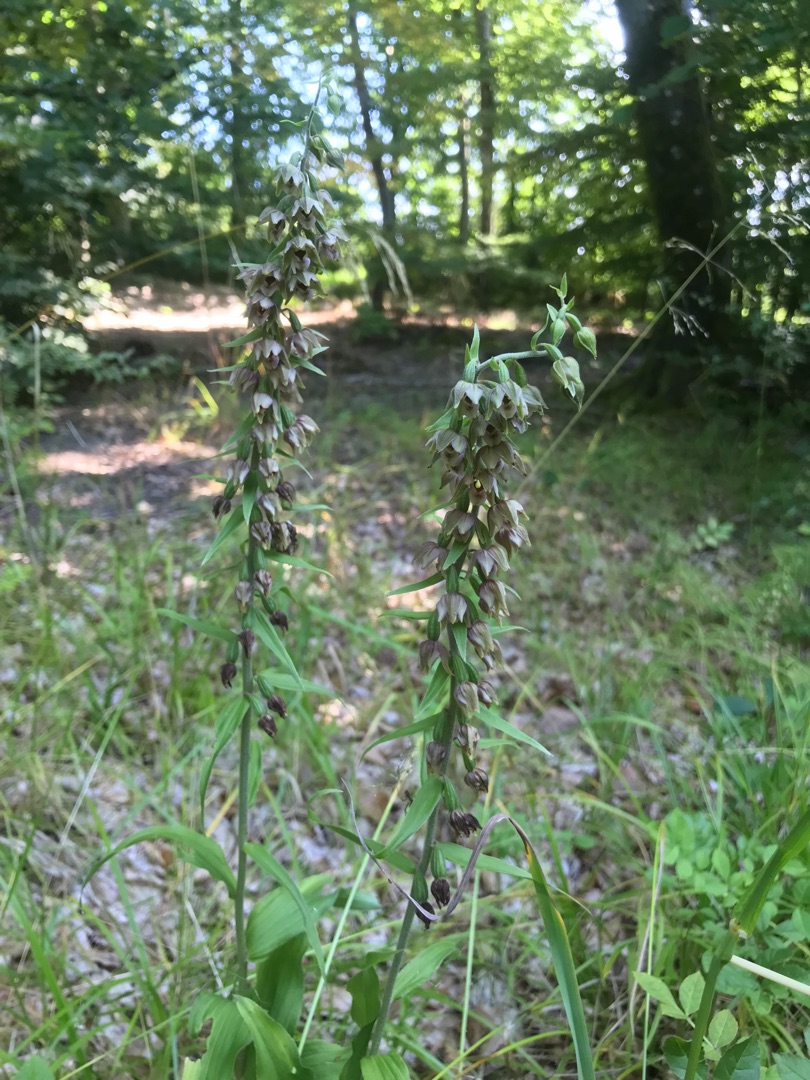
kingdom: Plantae
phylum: Tracheophyta
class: Liliopsida
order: Asparagales
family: Orchidaceae
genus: Epipactis
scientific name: Epipactis helleborine
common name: Skov-hullæbe
